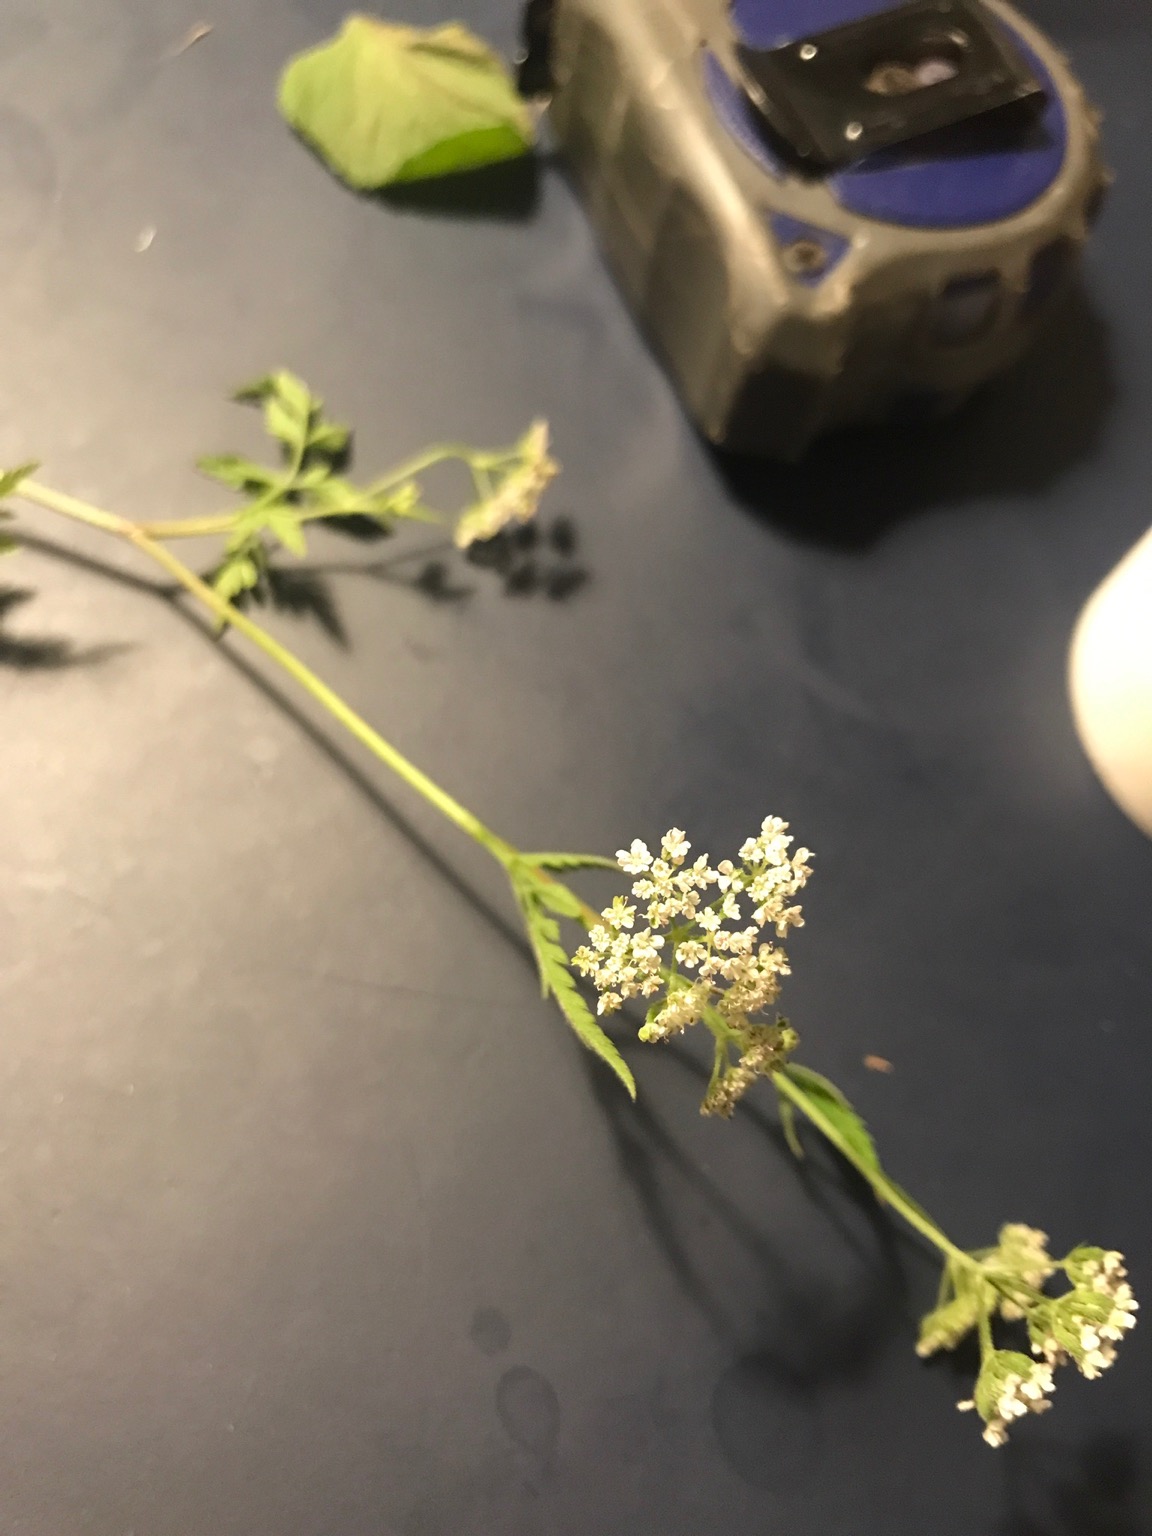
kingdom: Plantae
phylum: Tracheophyta
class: Magnoliopsida
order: Apiales
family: Apiaceae
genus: Torilis
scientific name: Torilis japonica
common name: Hvas randfrø
